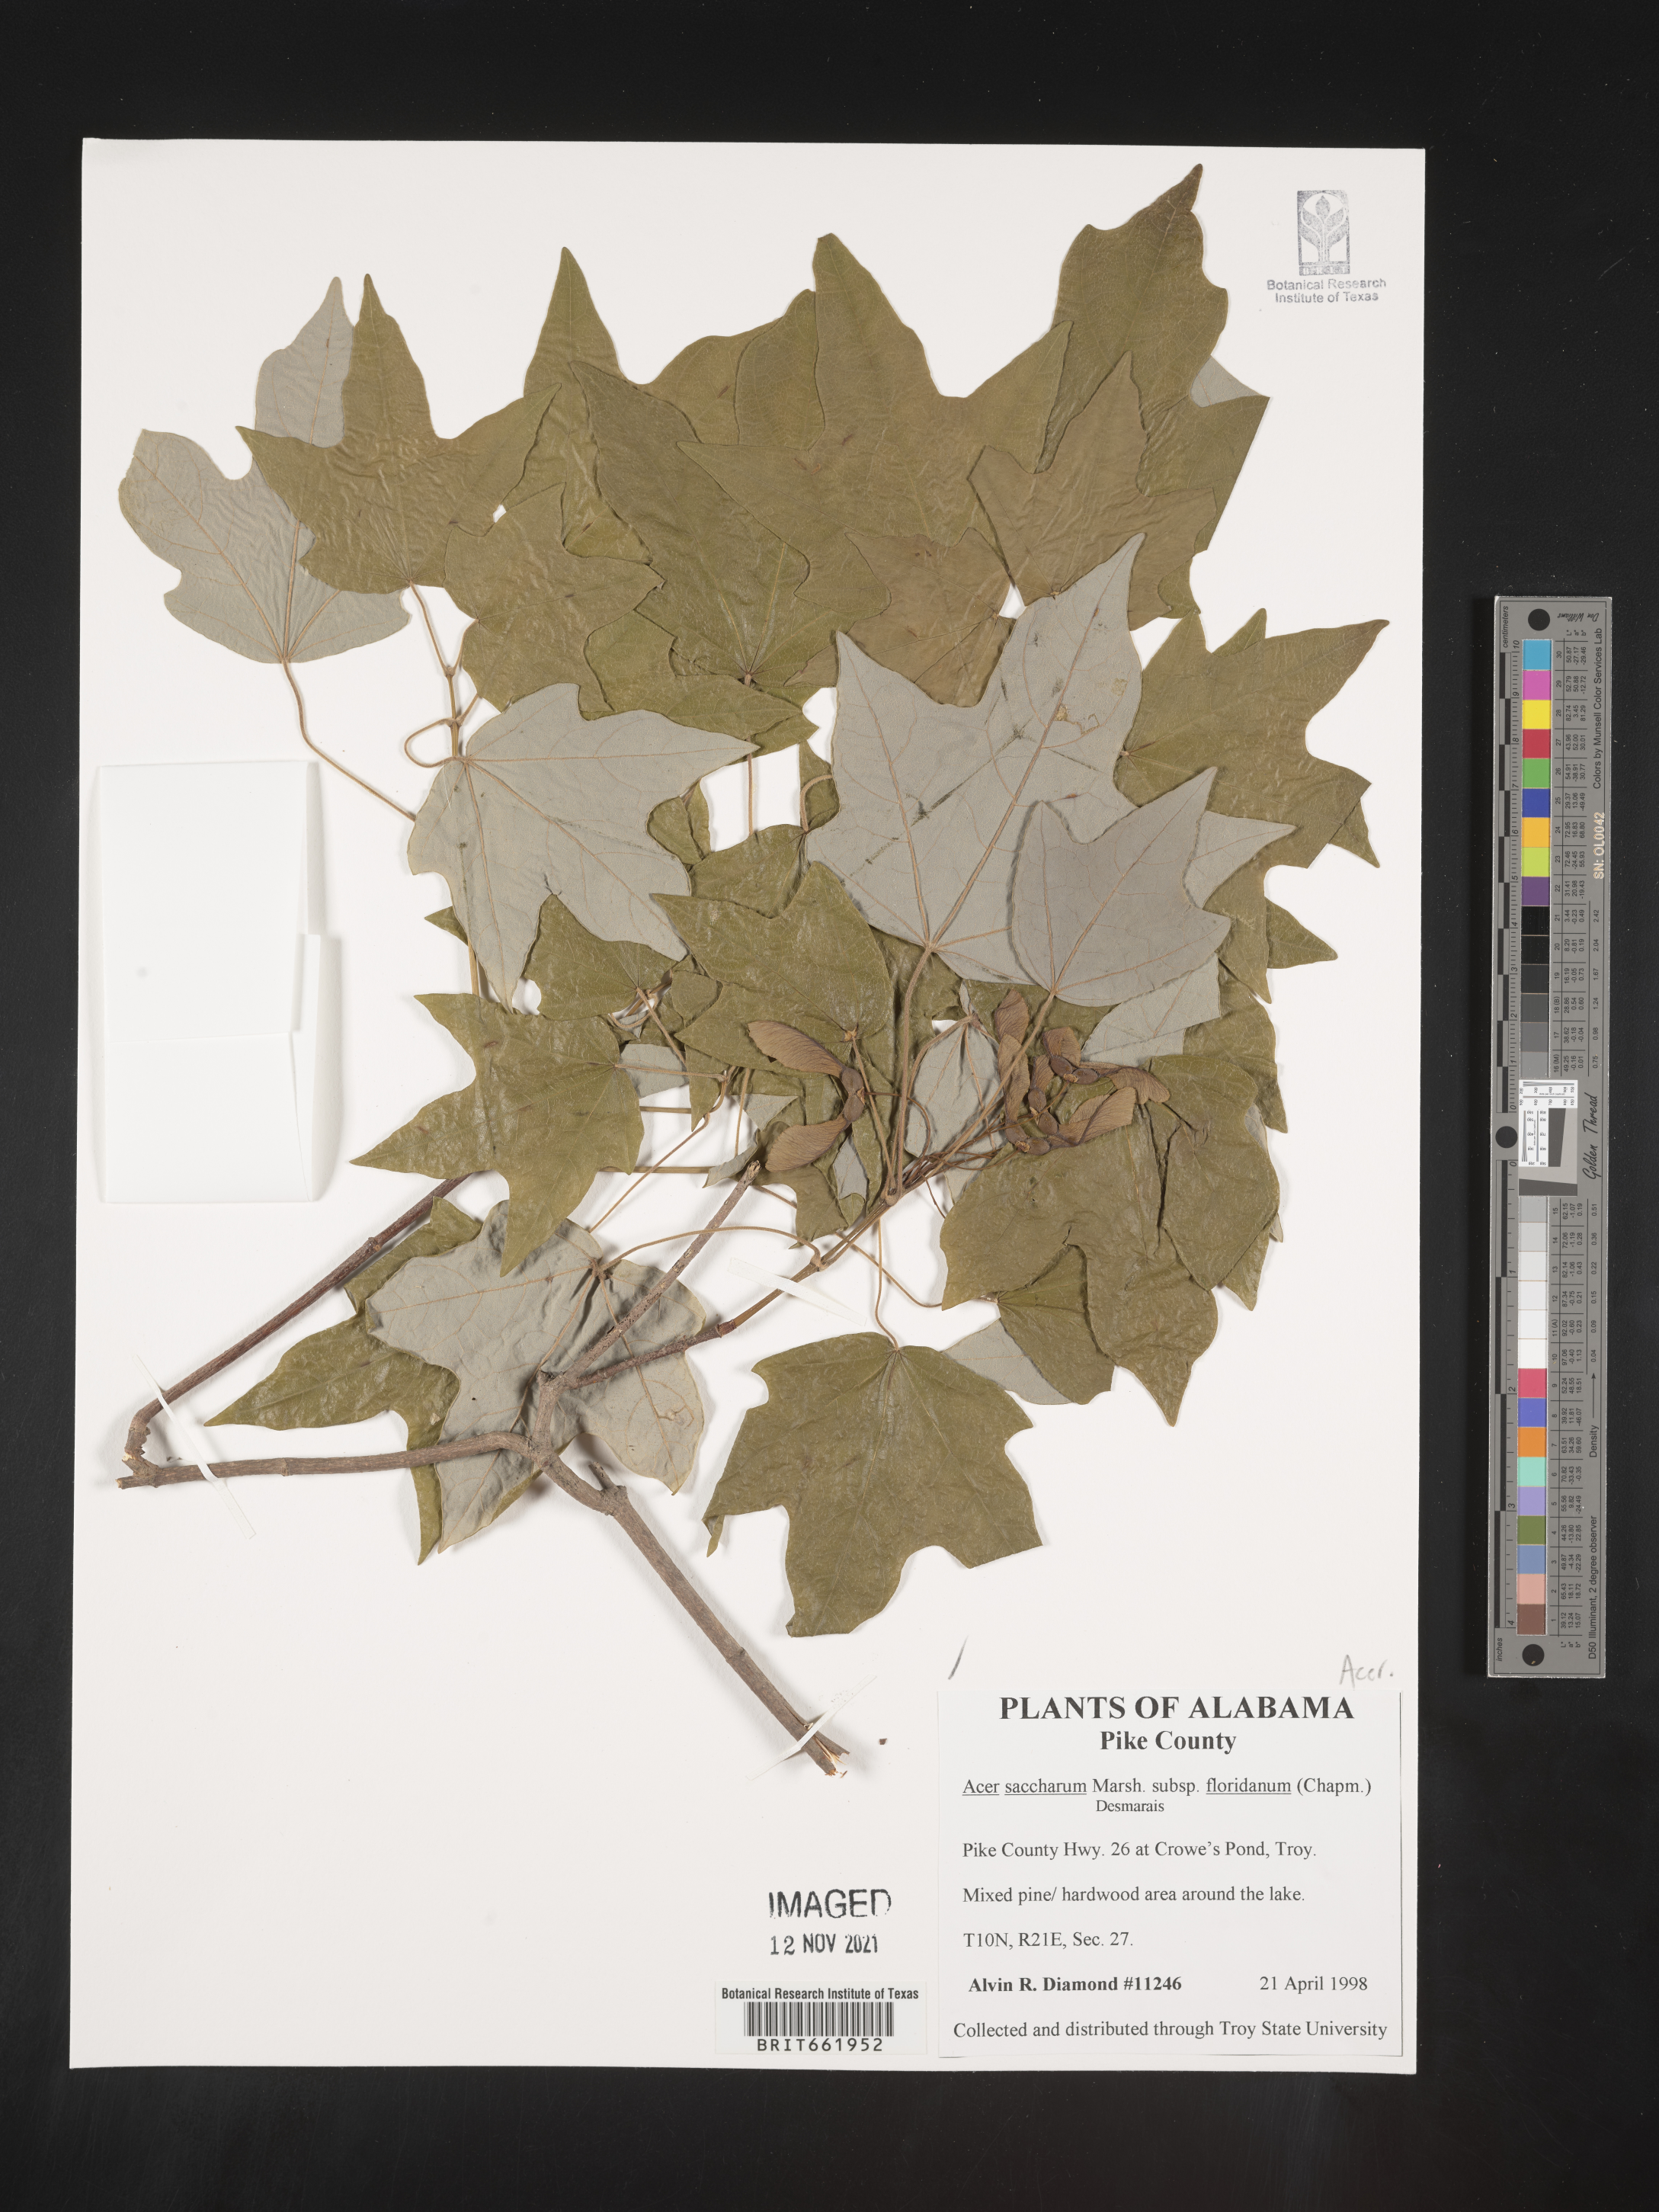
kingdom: Plantae
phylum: Tracheophyta
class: Magnoliopsida
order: Sapindales
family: Sapindaceae
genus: Acer
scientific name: Acer barbatum
